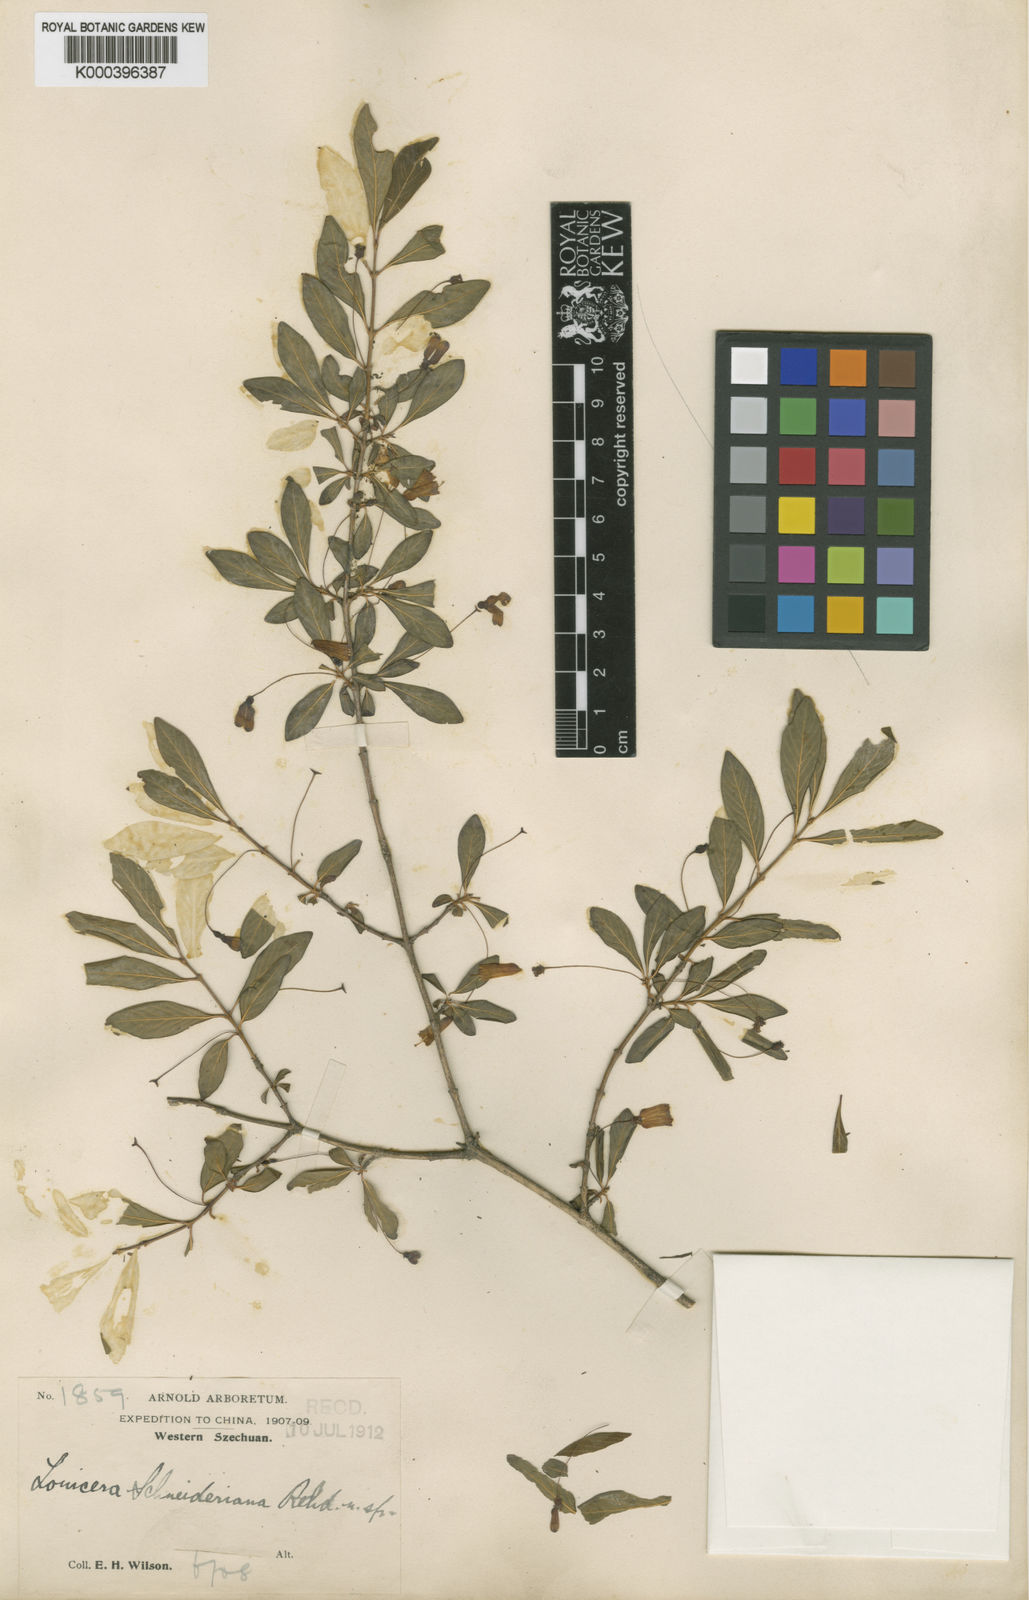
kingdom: Plantae
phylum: Tracheophyta
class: Magnoliopsida
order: Dipsacales
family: Caprifoliaceae
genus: Lonicera
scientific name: Lonicera tangutica
